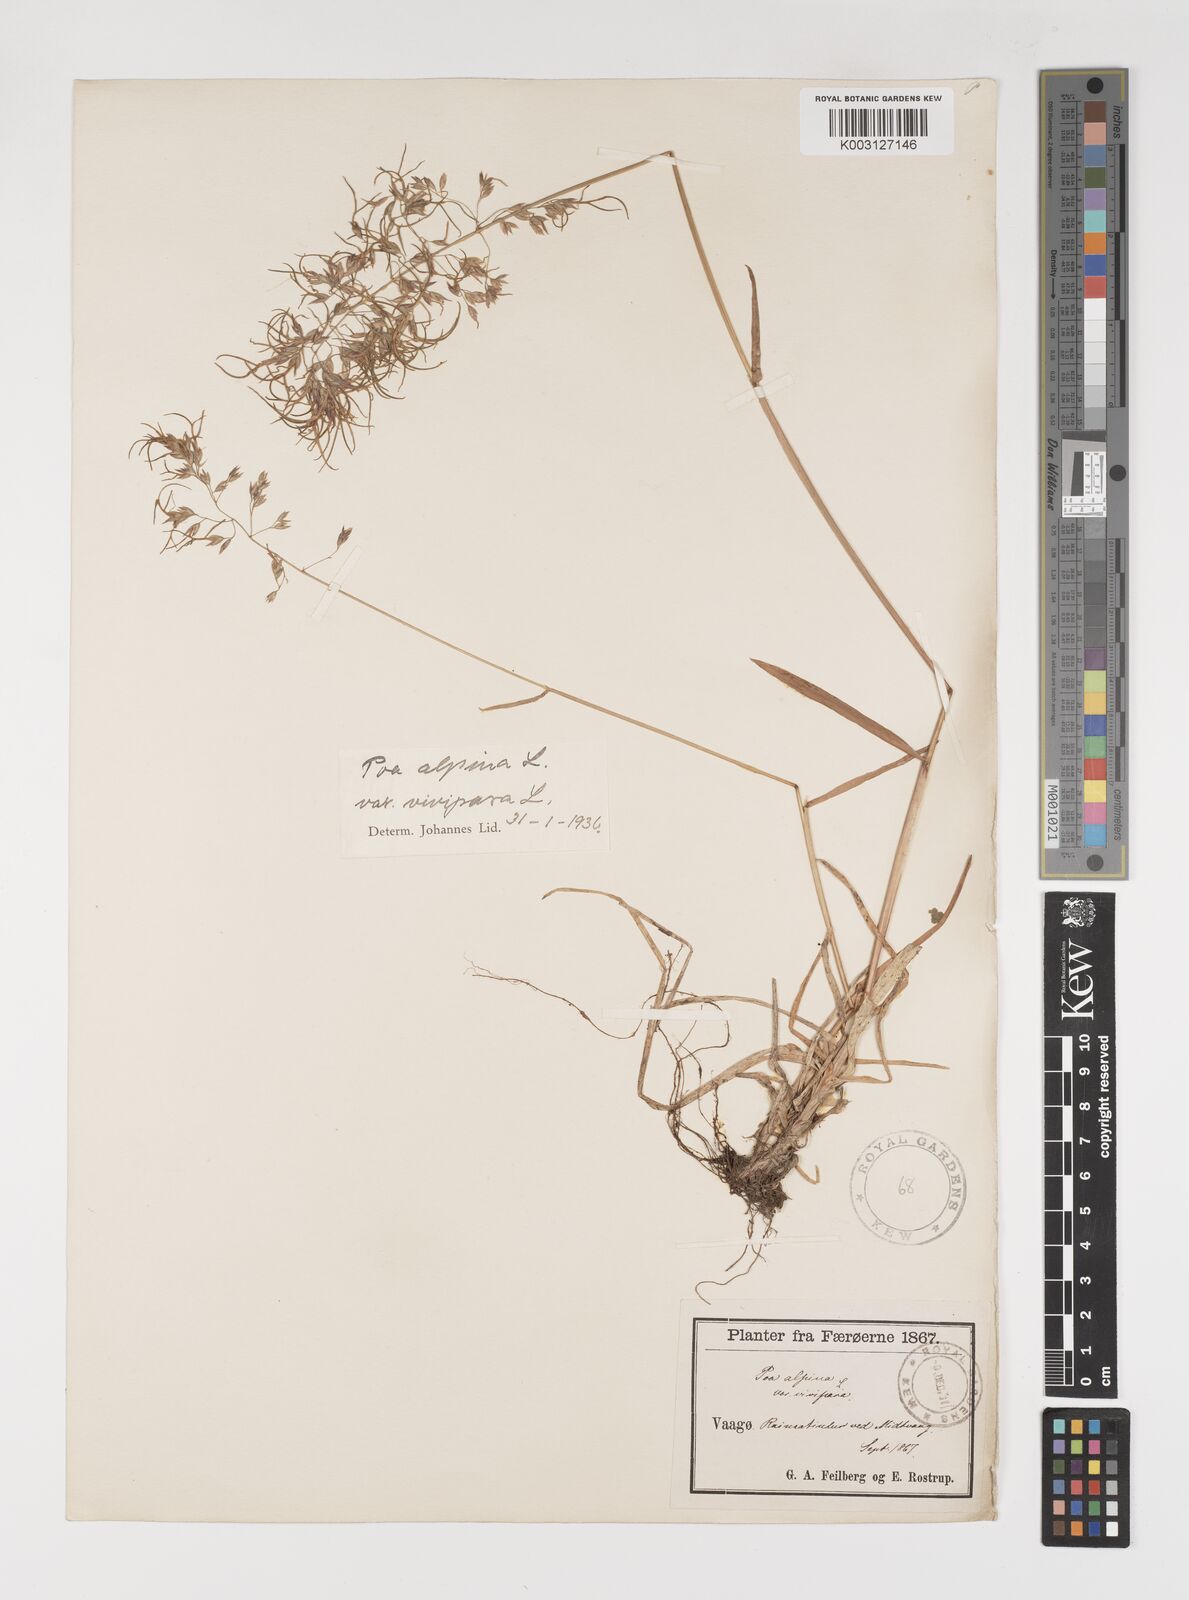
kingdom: Plantae
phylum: Tracheophyta
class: Liliopsida
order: Poales
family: Poaceae
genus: Poa
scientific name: Poa alpina
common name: Alpine bluegrass
